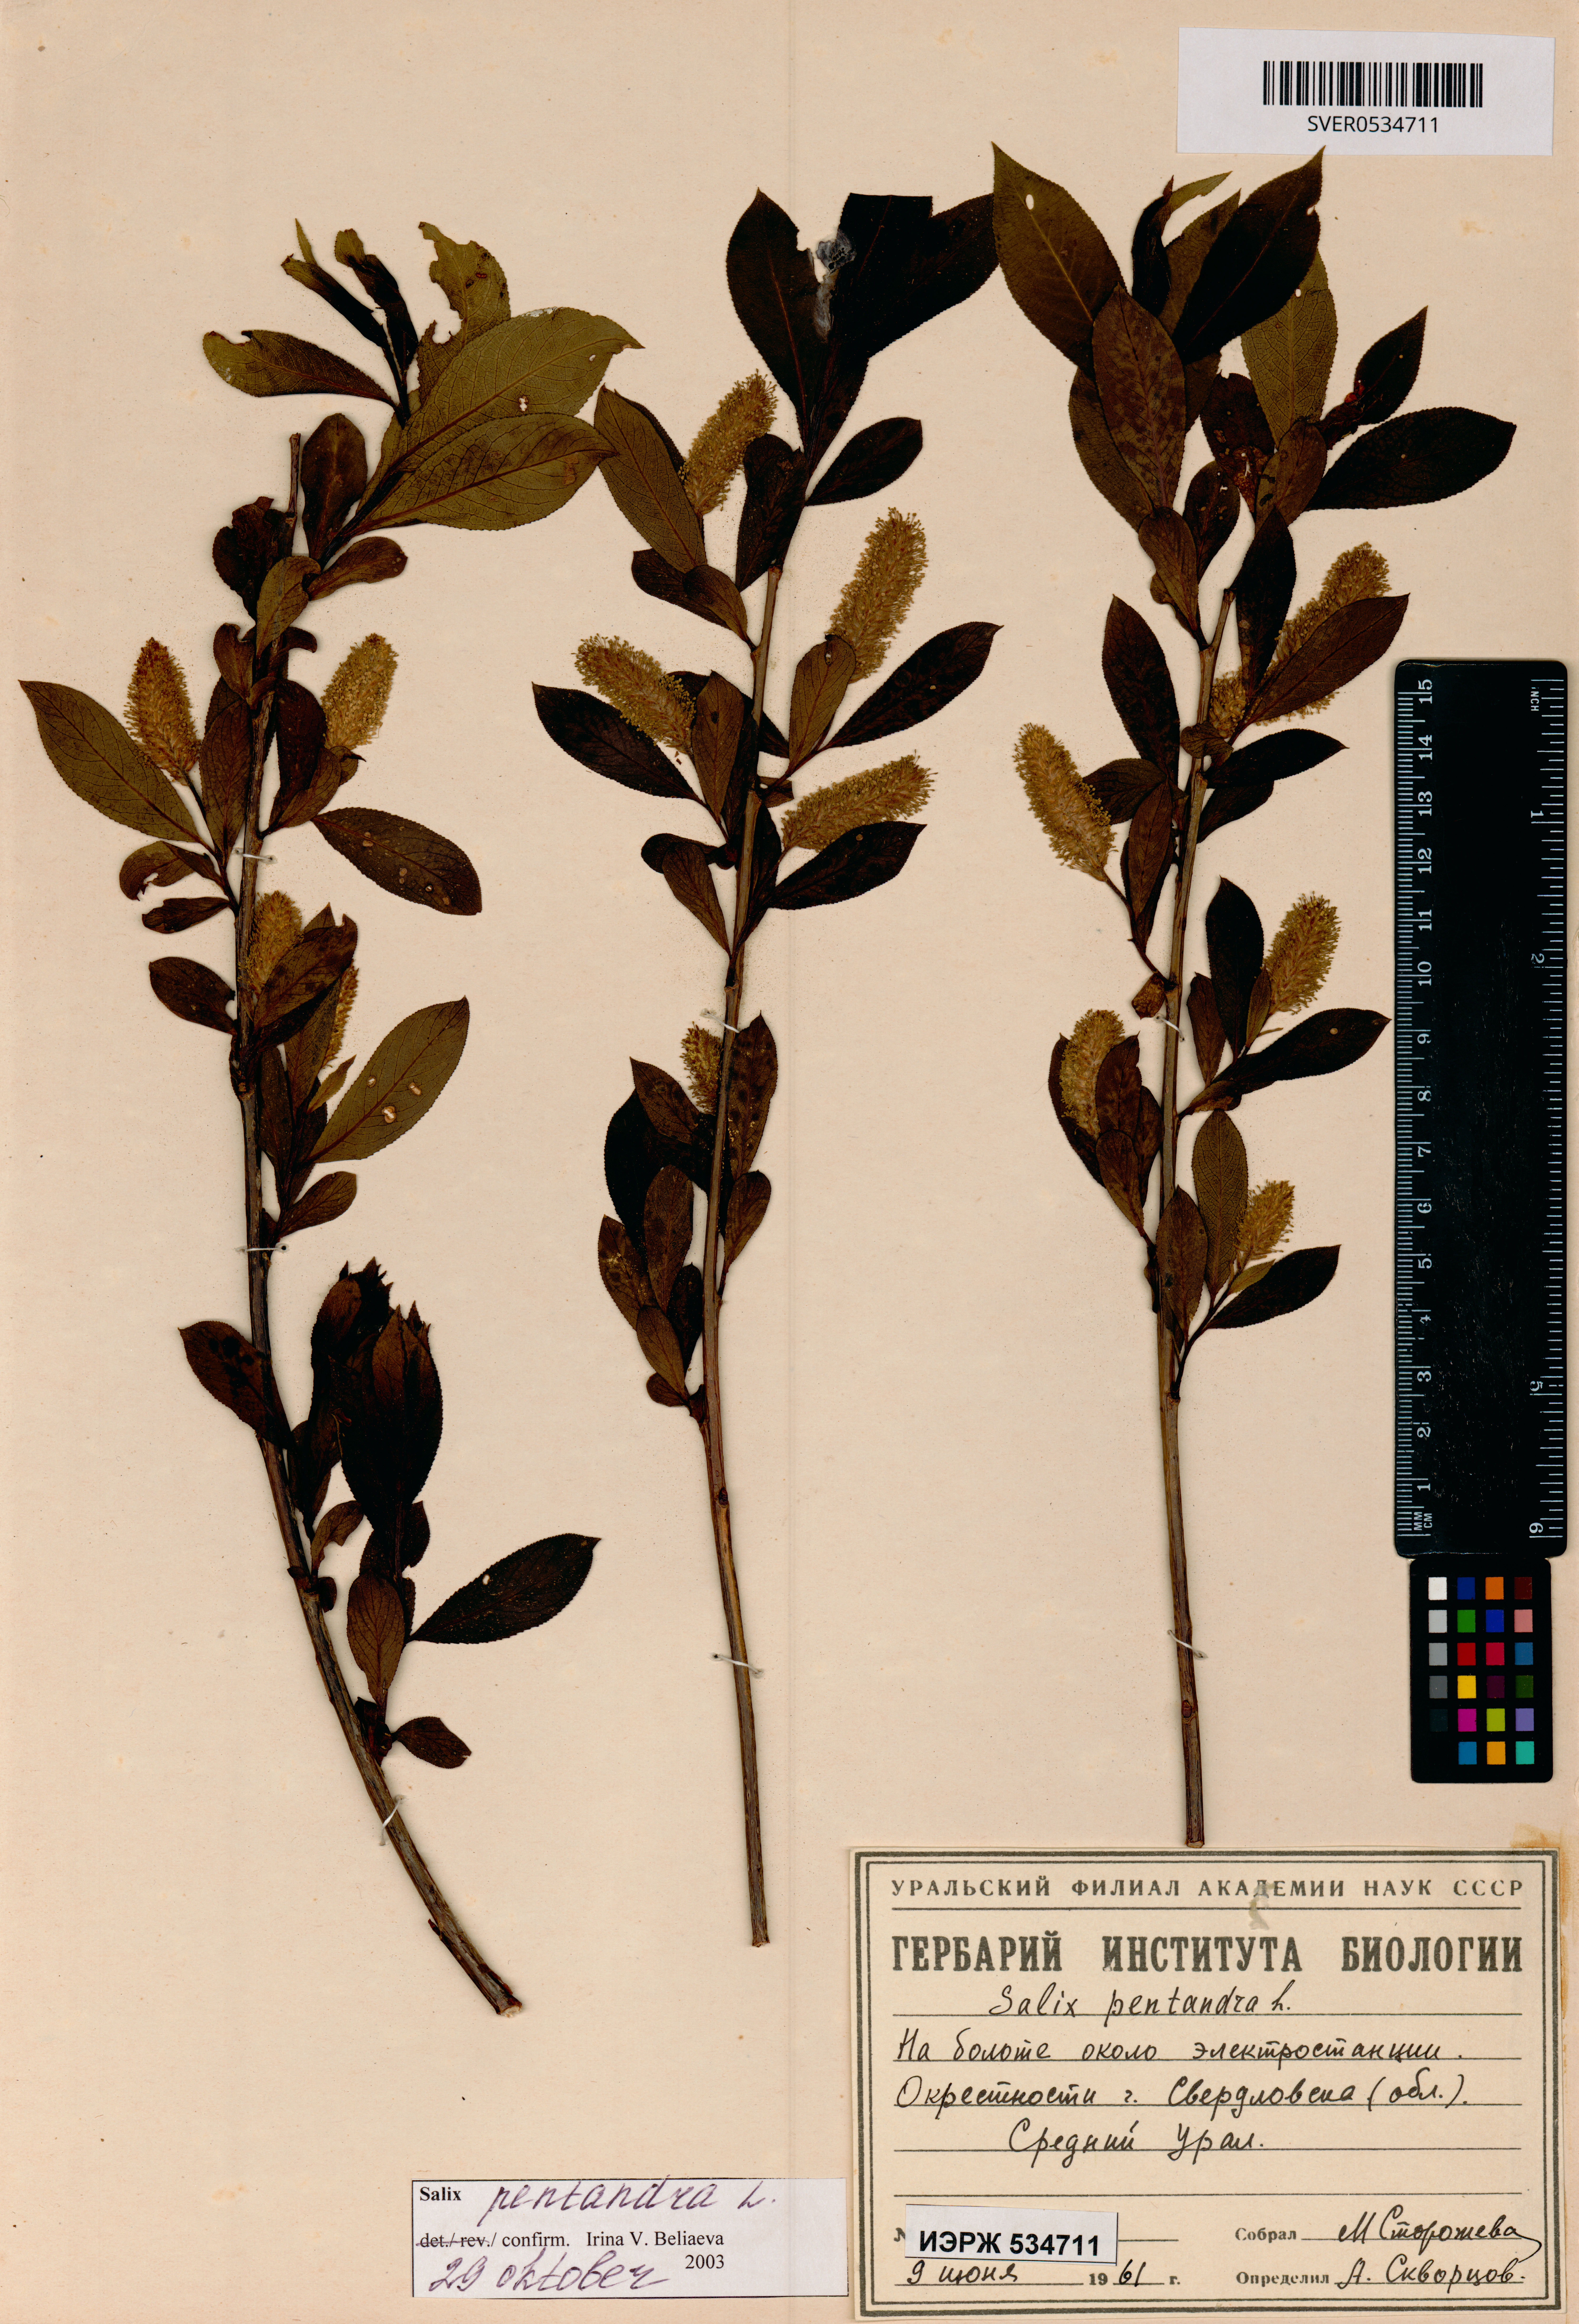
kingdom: Plantae
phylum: Tracheophyta
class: Magnoliopsida
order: Malpighiales
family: Salicaceae
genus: Salix
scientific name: Salix pentandra
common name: Bay willow
